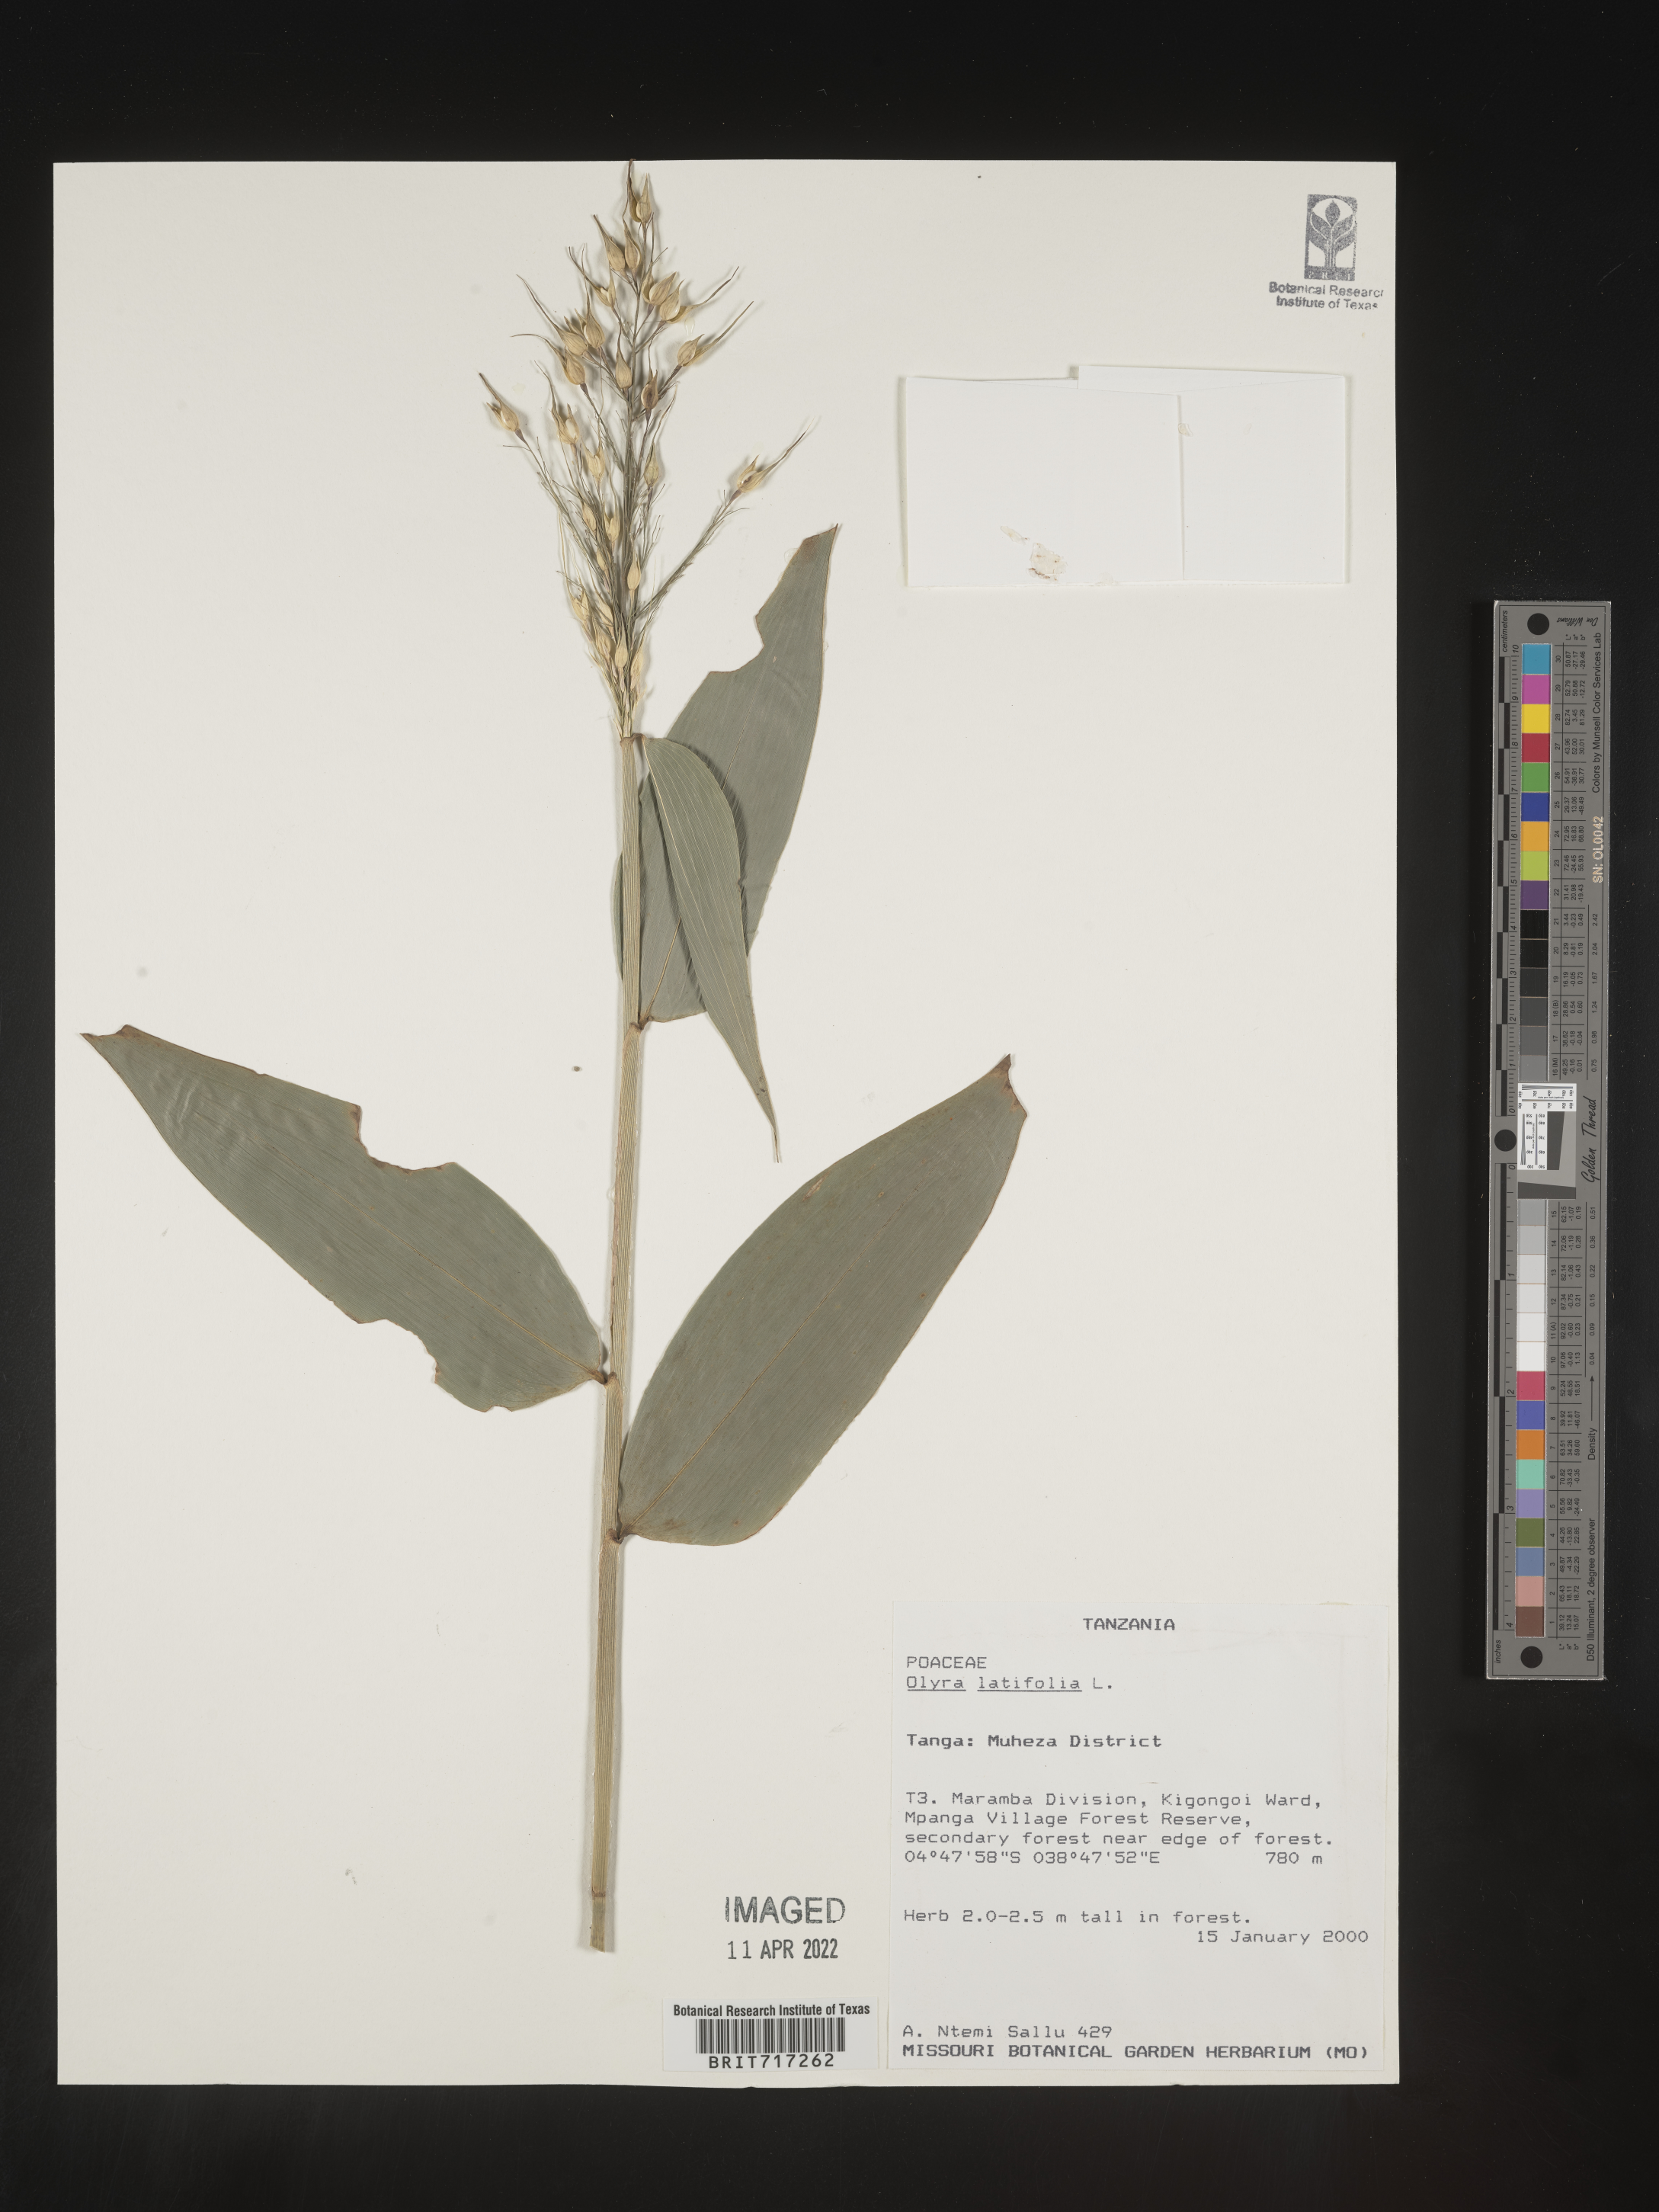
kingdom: Plantae
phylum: Tracheophyta
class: Liliopsida
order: Poales
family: Poaceae
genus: Olyra
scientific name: Olyra
